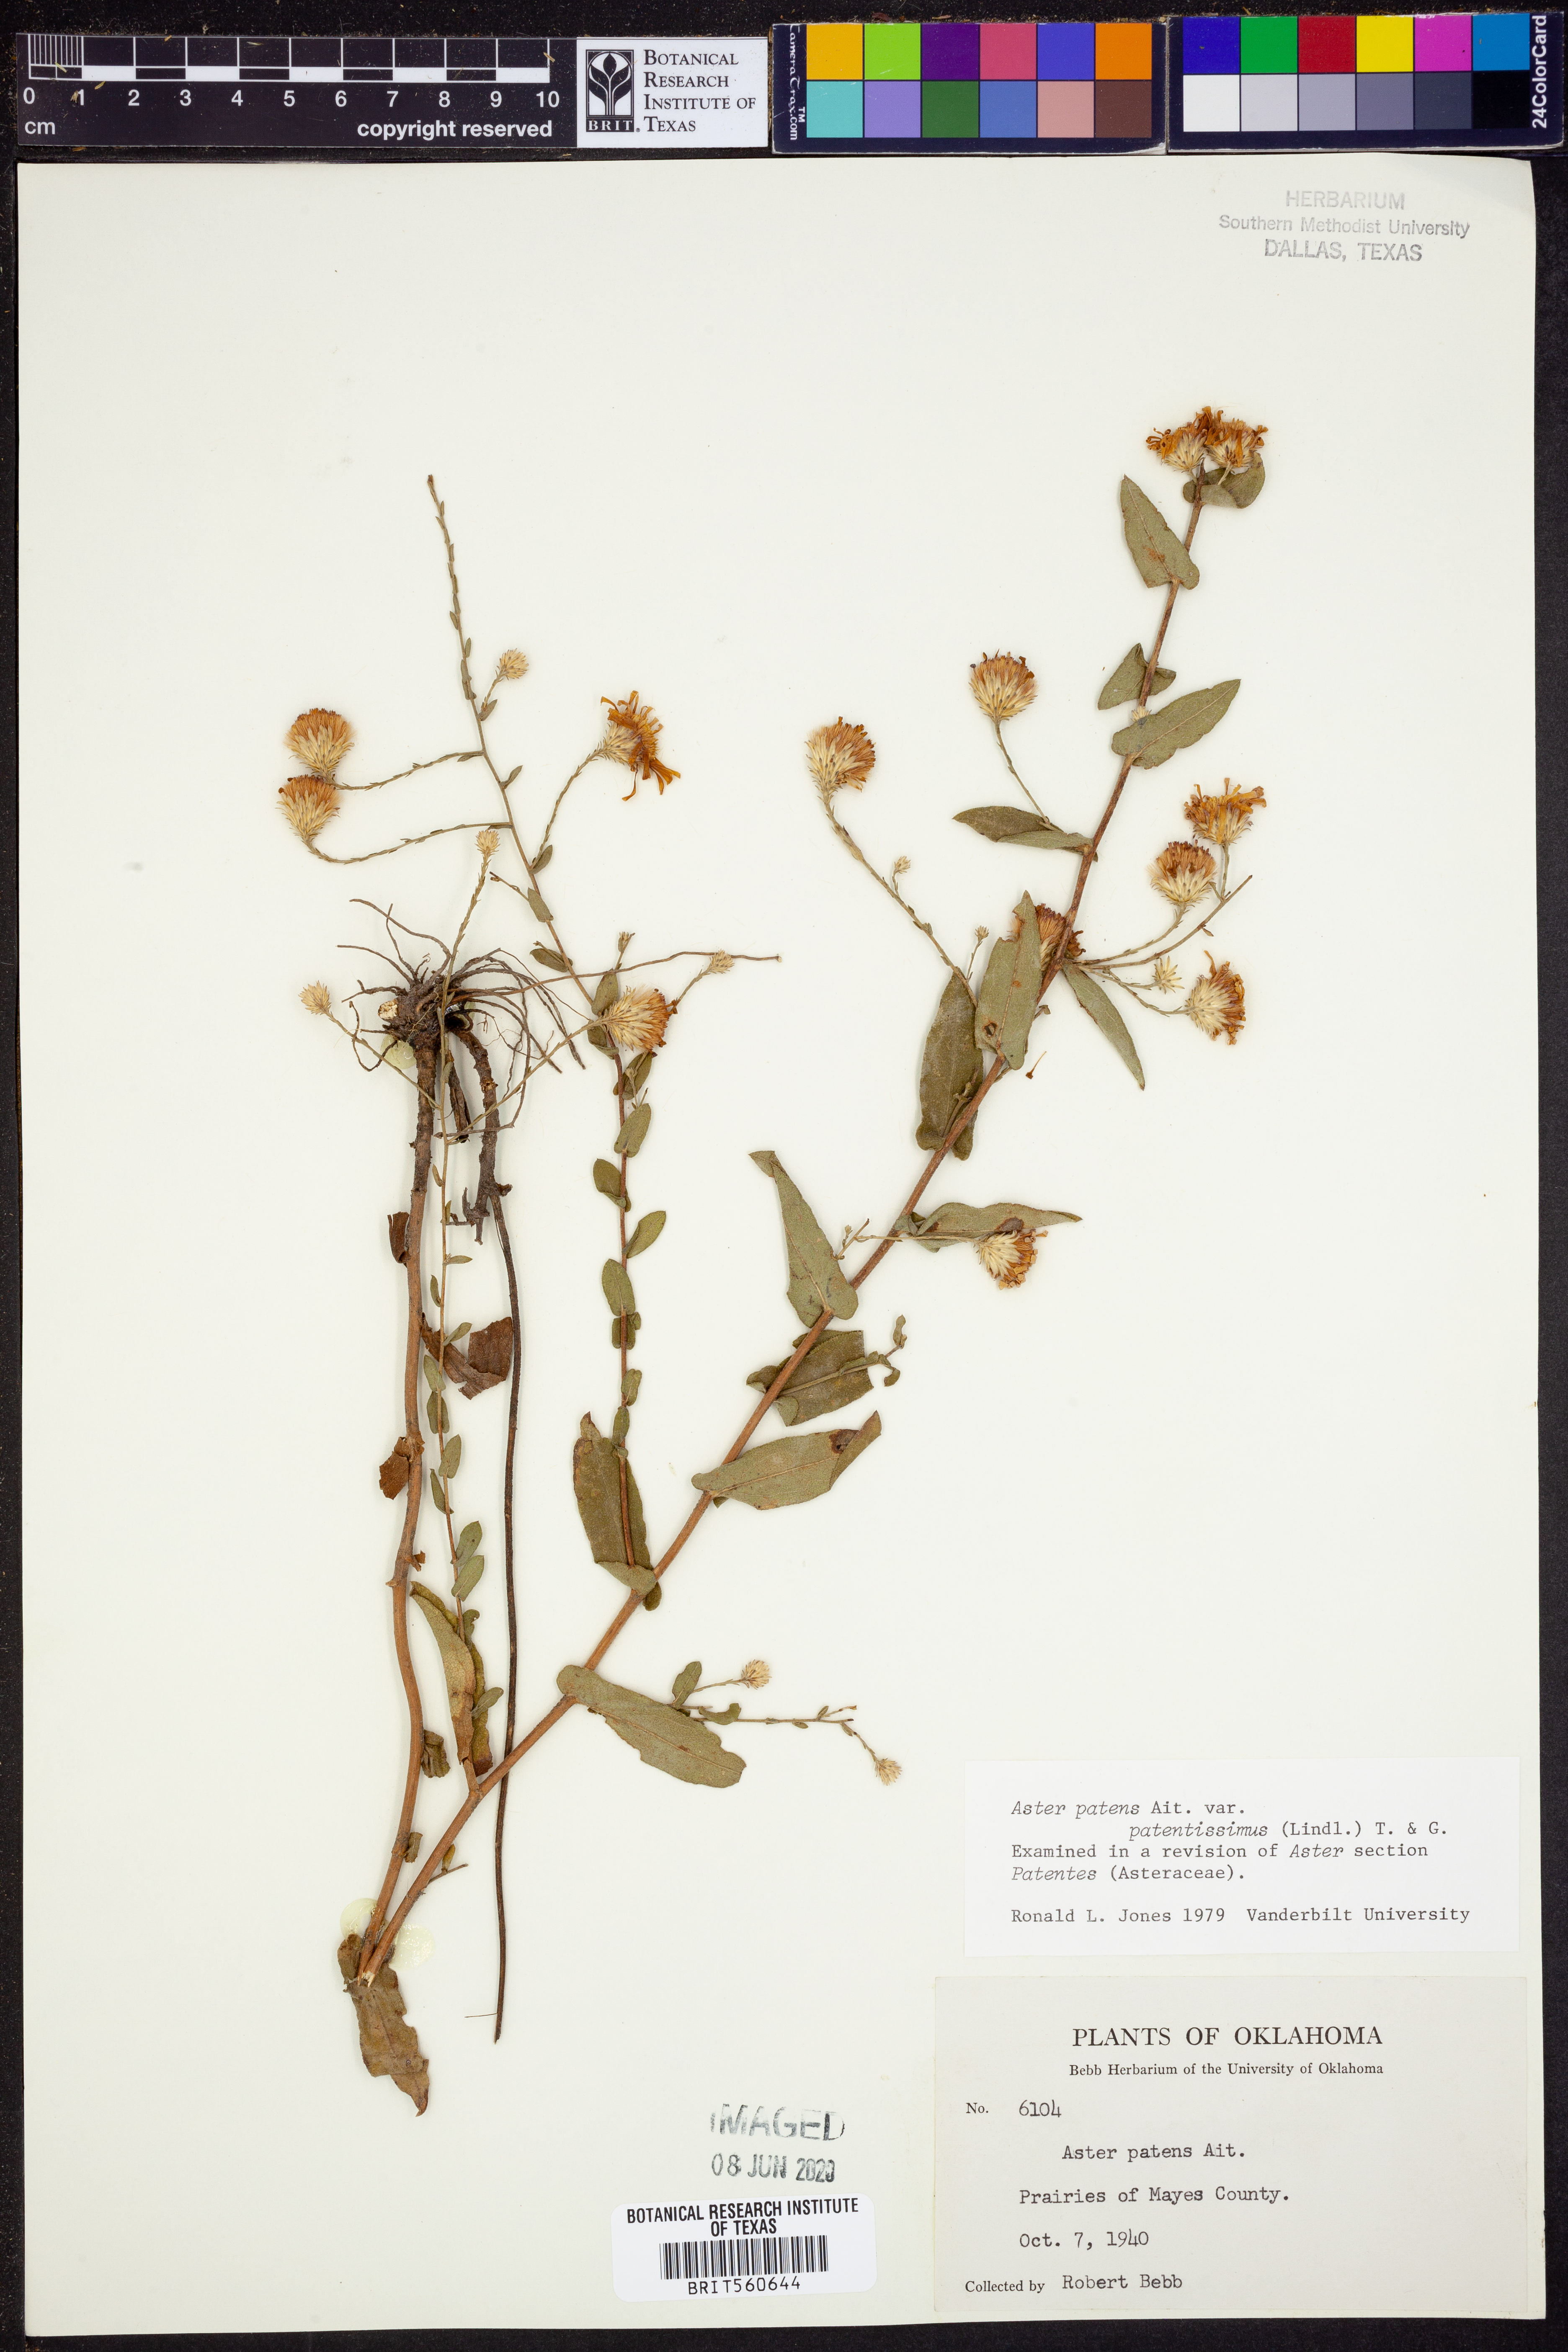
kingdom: Plantae
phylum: Tracheophyta
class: Magnoliopsida
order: Asterales
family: Asteraceae
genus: Symphyotrichum
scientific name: Symphyotrichum patens
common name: Late purple aster
